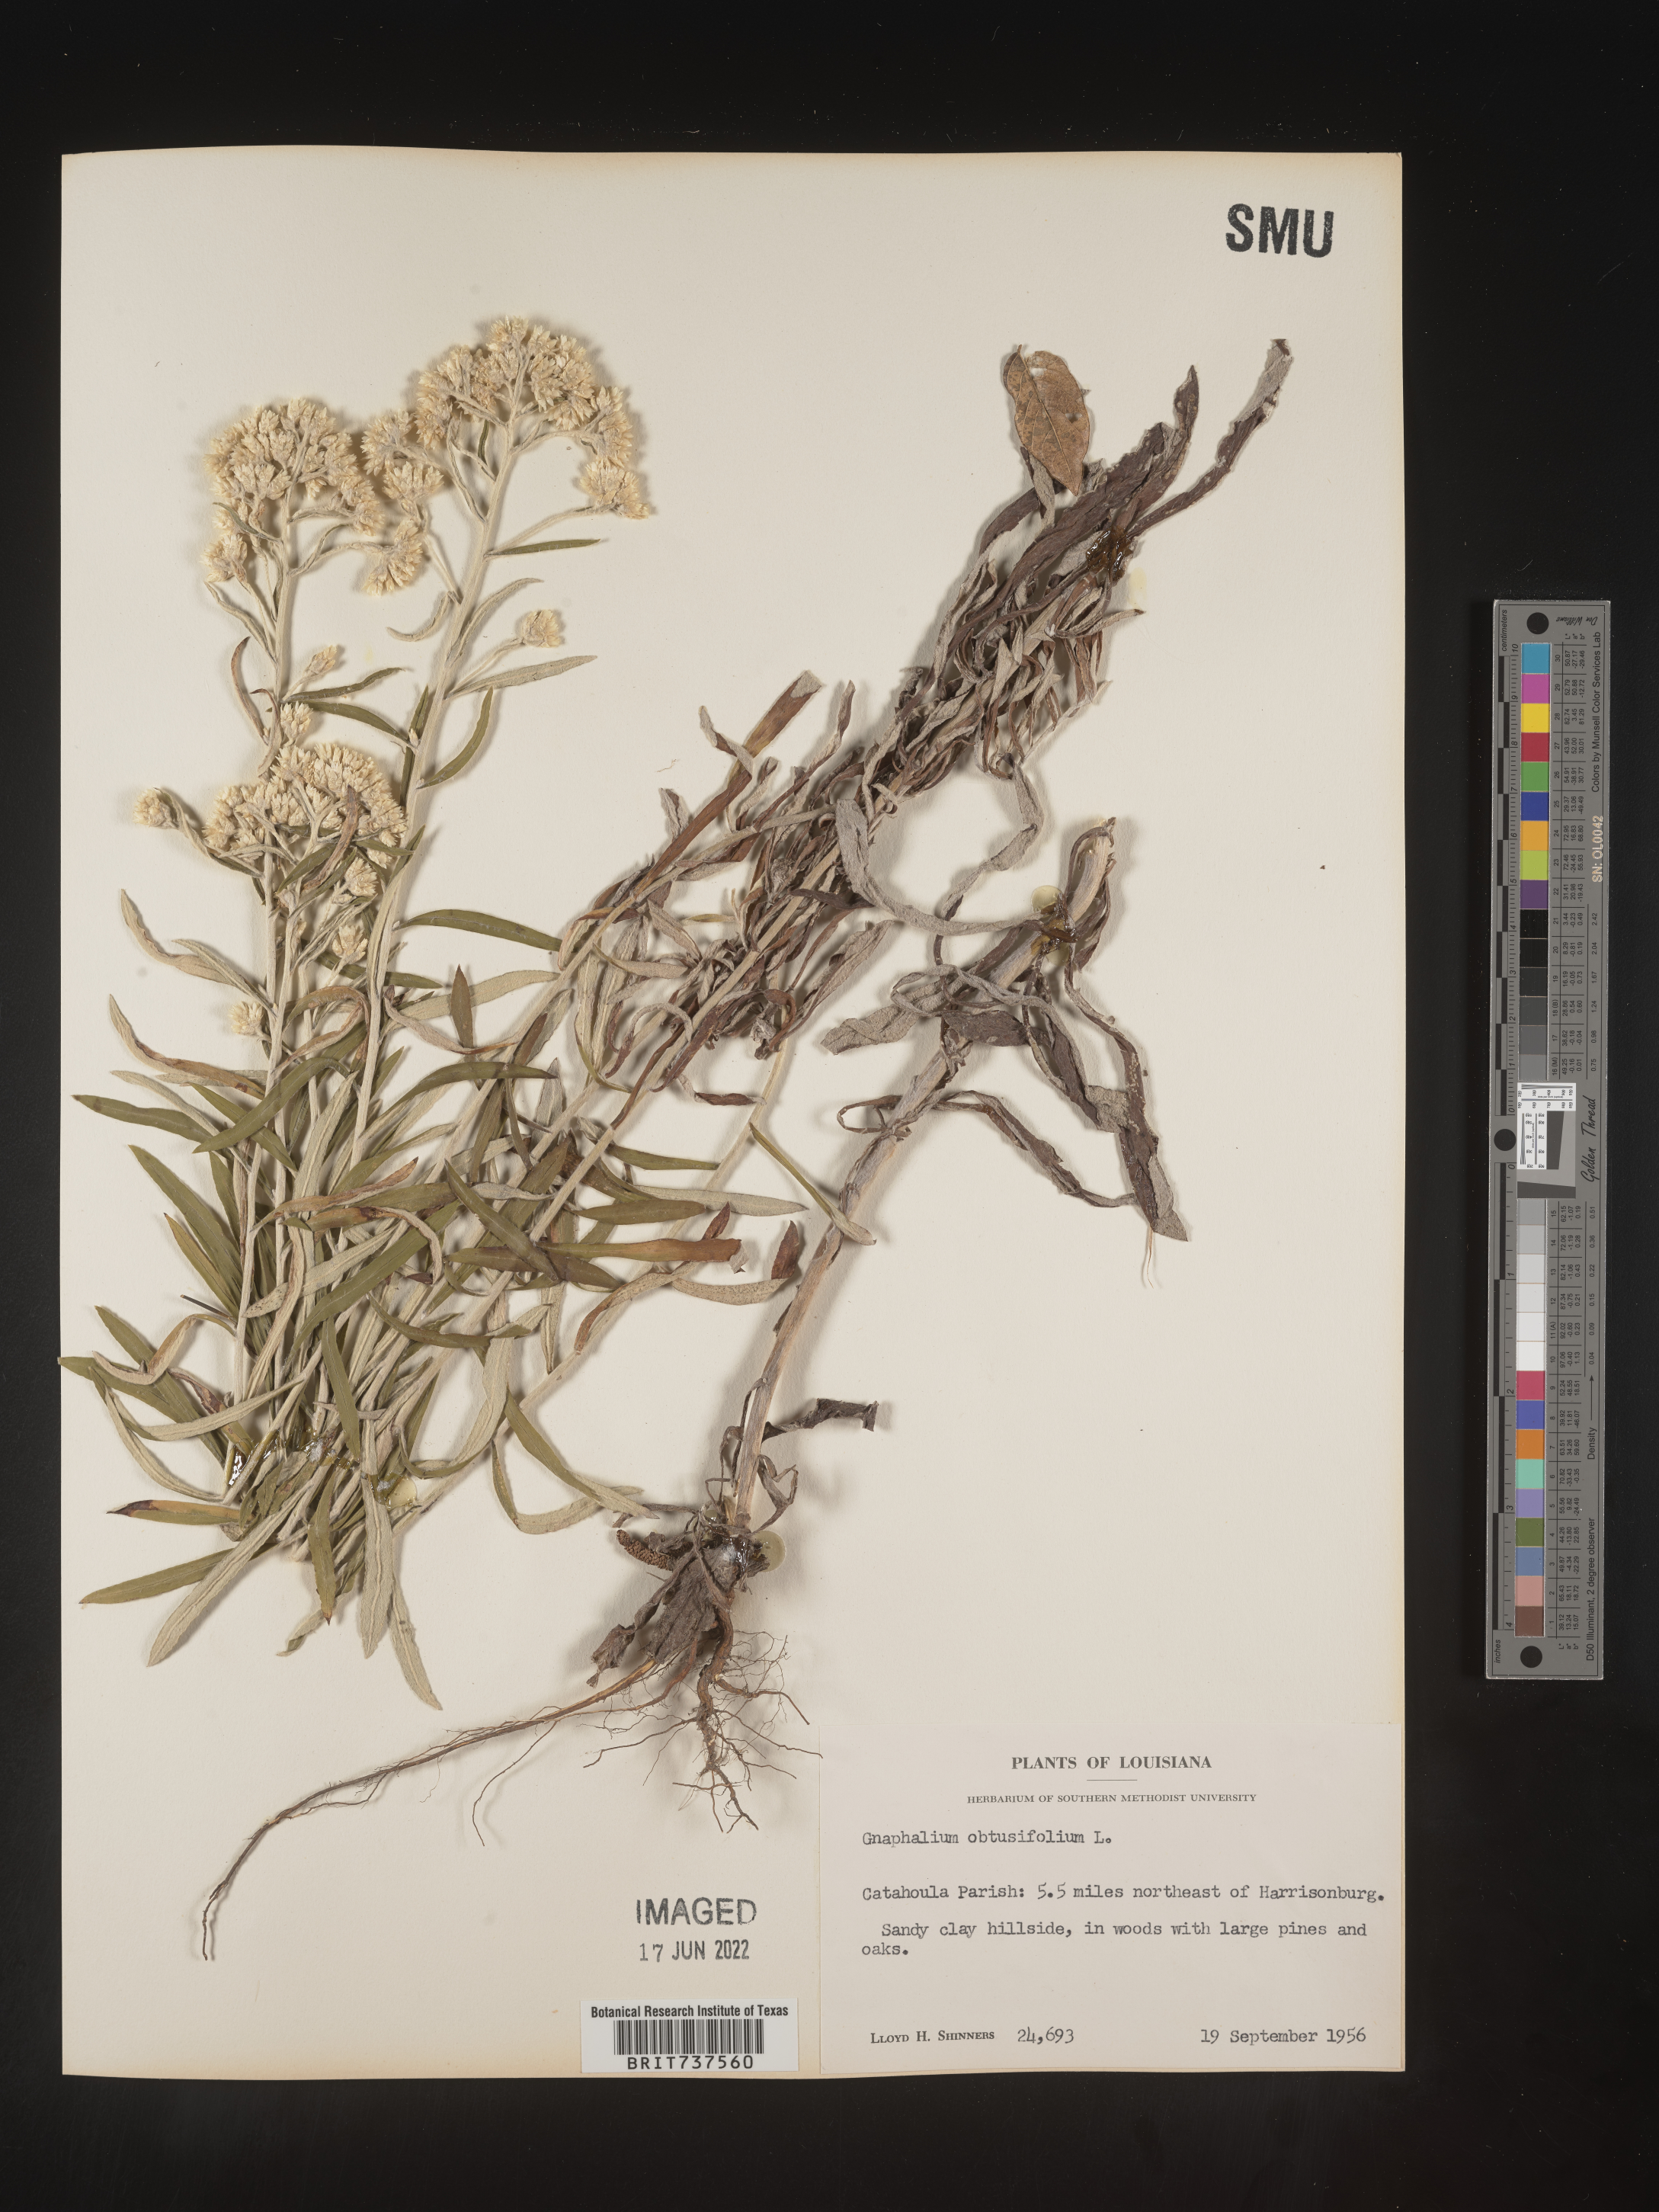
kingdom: Plantae
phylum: Tracheophyta
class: Magnoliopsida
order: Asterales
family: Asteraceae
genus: Pseudognaphalium
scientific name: Pseudognaphalium obtusifolium
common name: Eastern rabbit-tobacco
